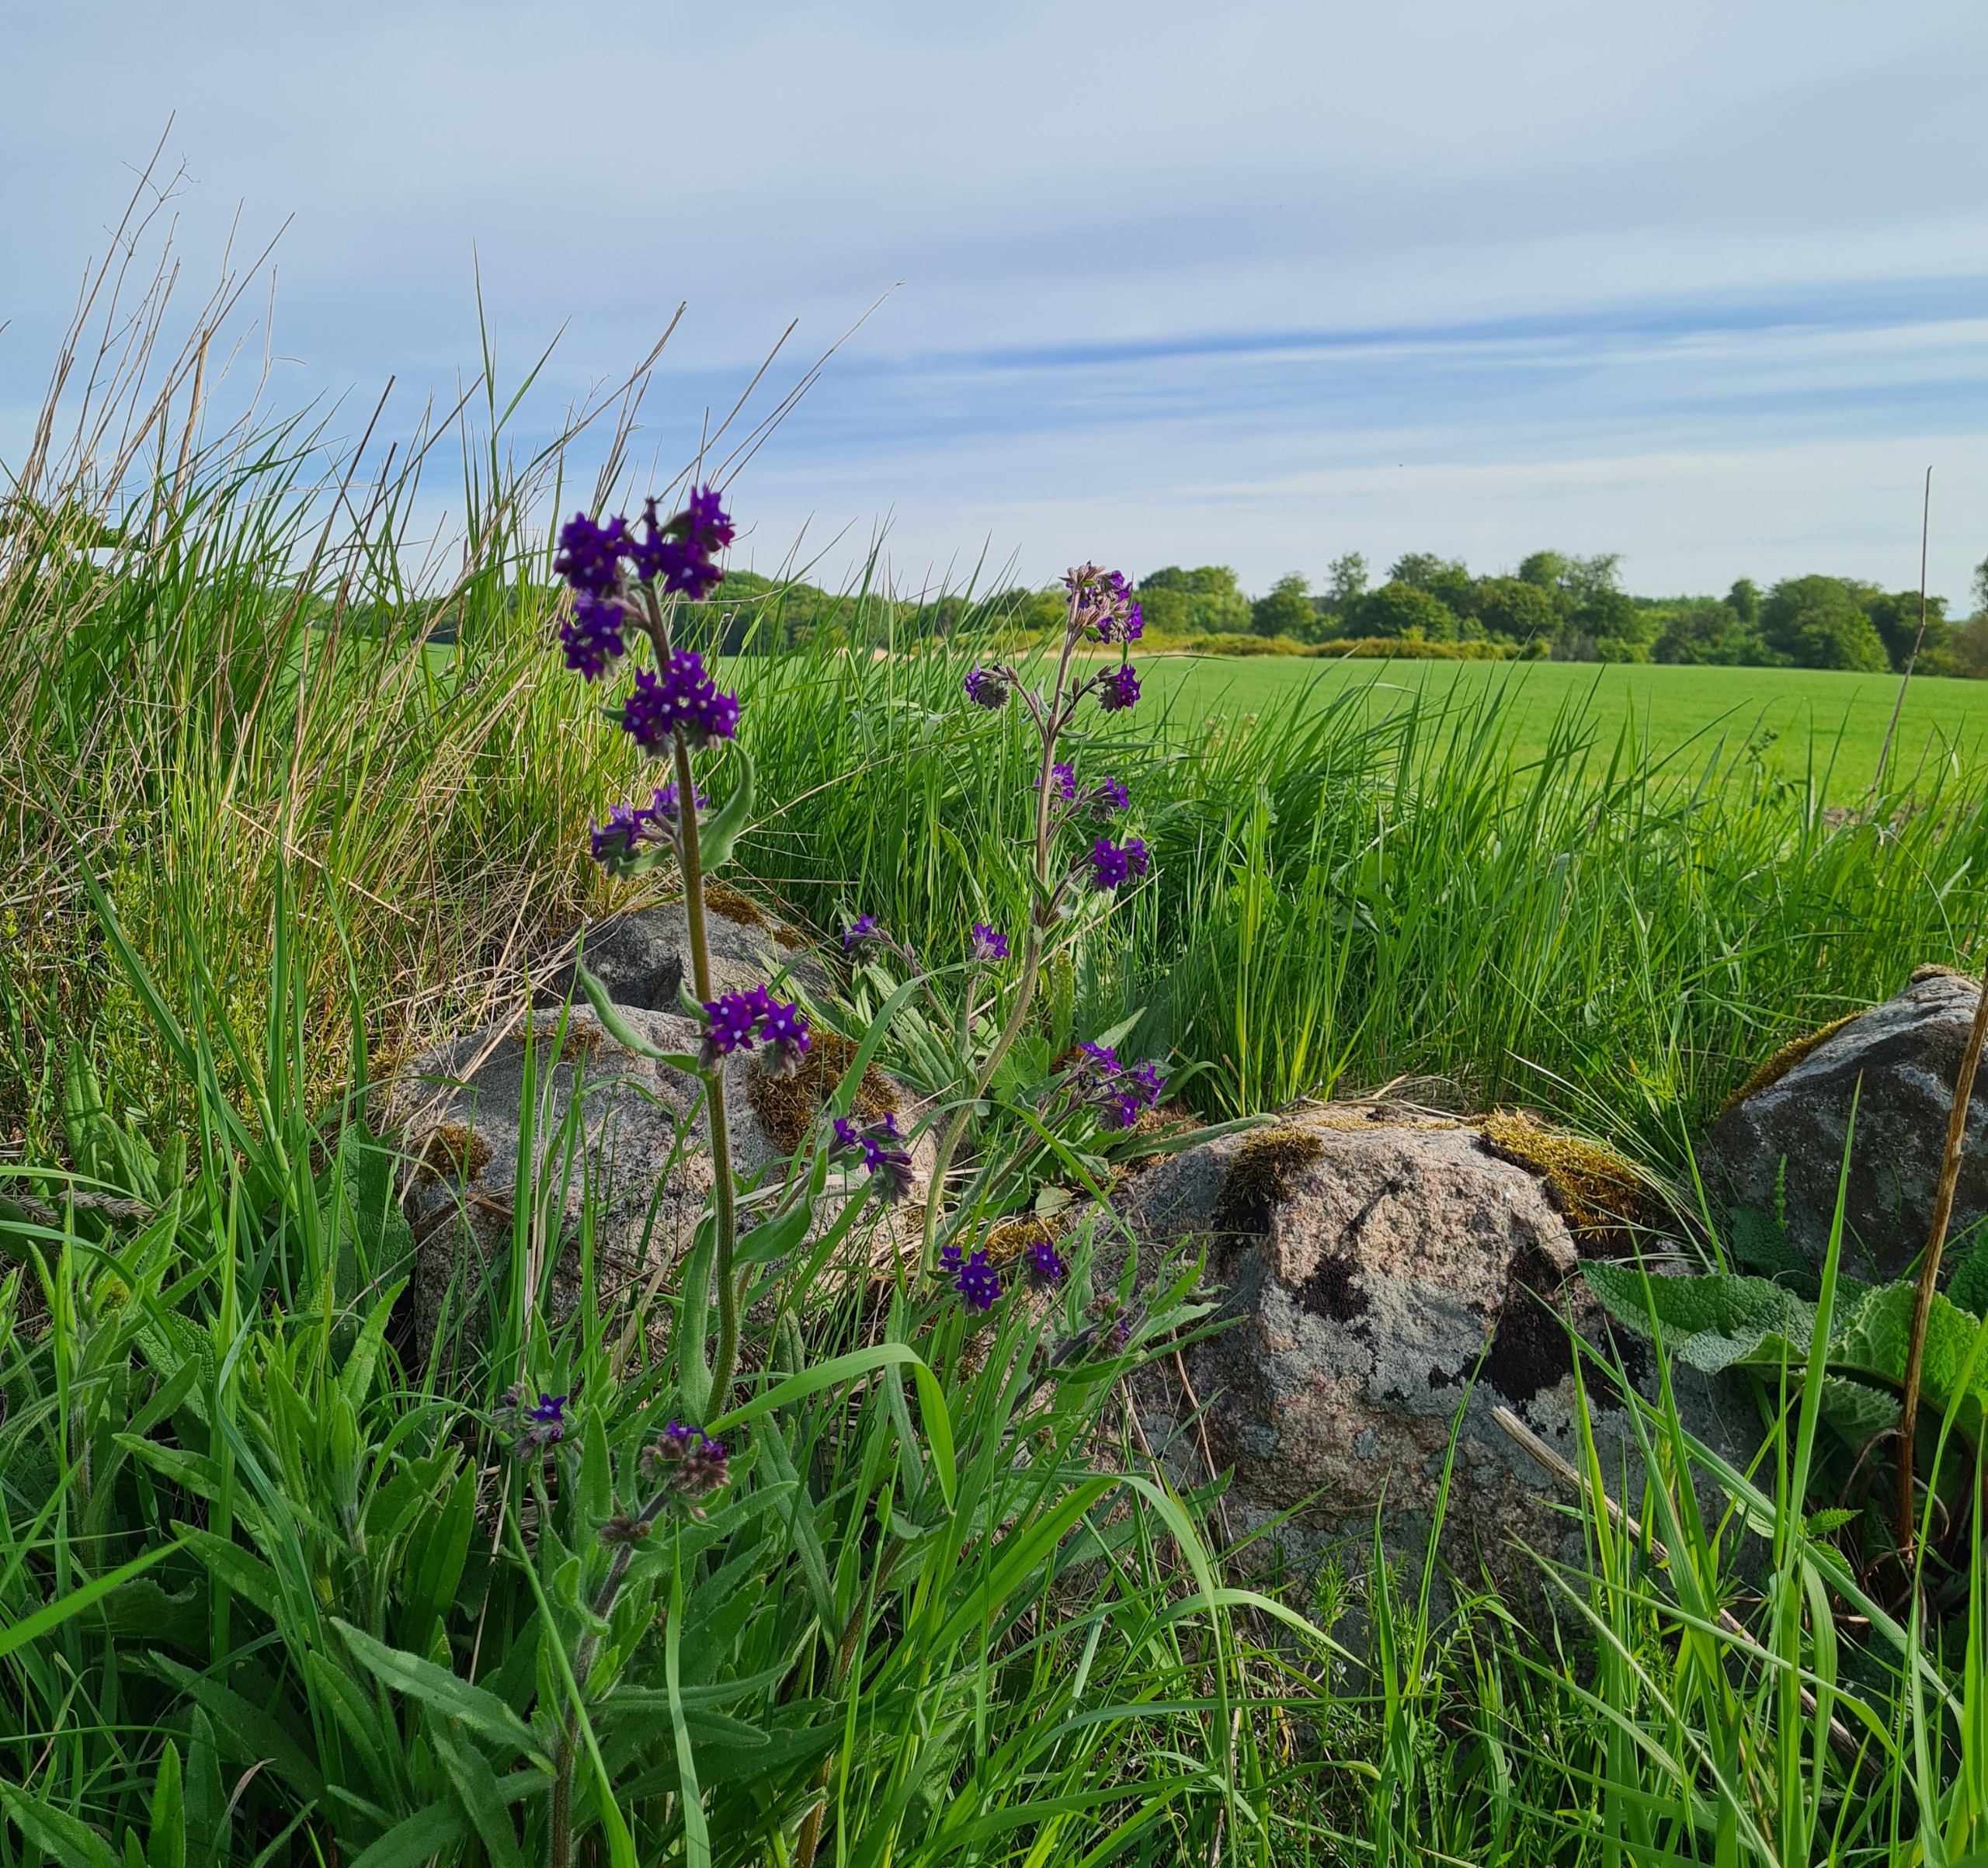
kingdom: Plantae
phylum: Tracheophyta
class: Magnoliopsida
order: Boraginales
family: Boraginaceae
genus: Anchusa
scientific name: Anchusa officinalis
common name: Læge-oksetunge
